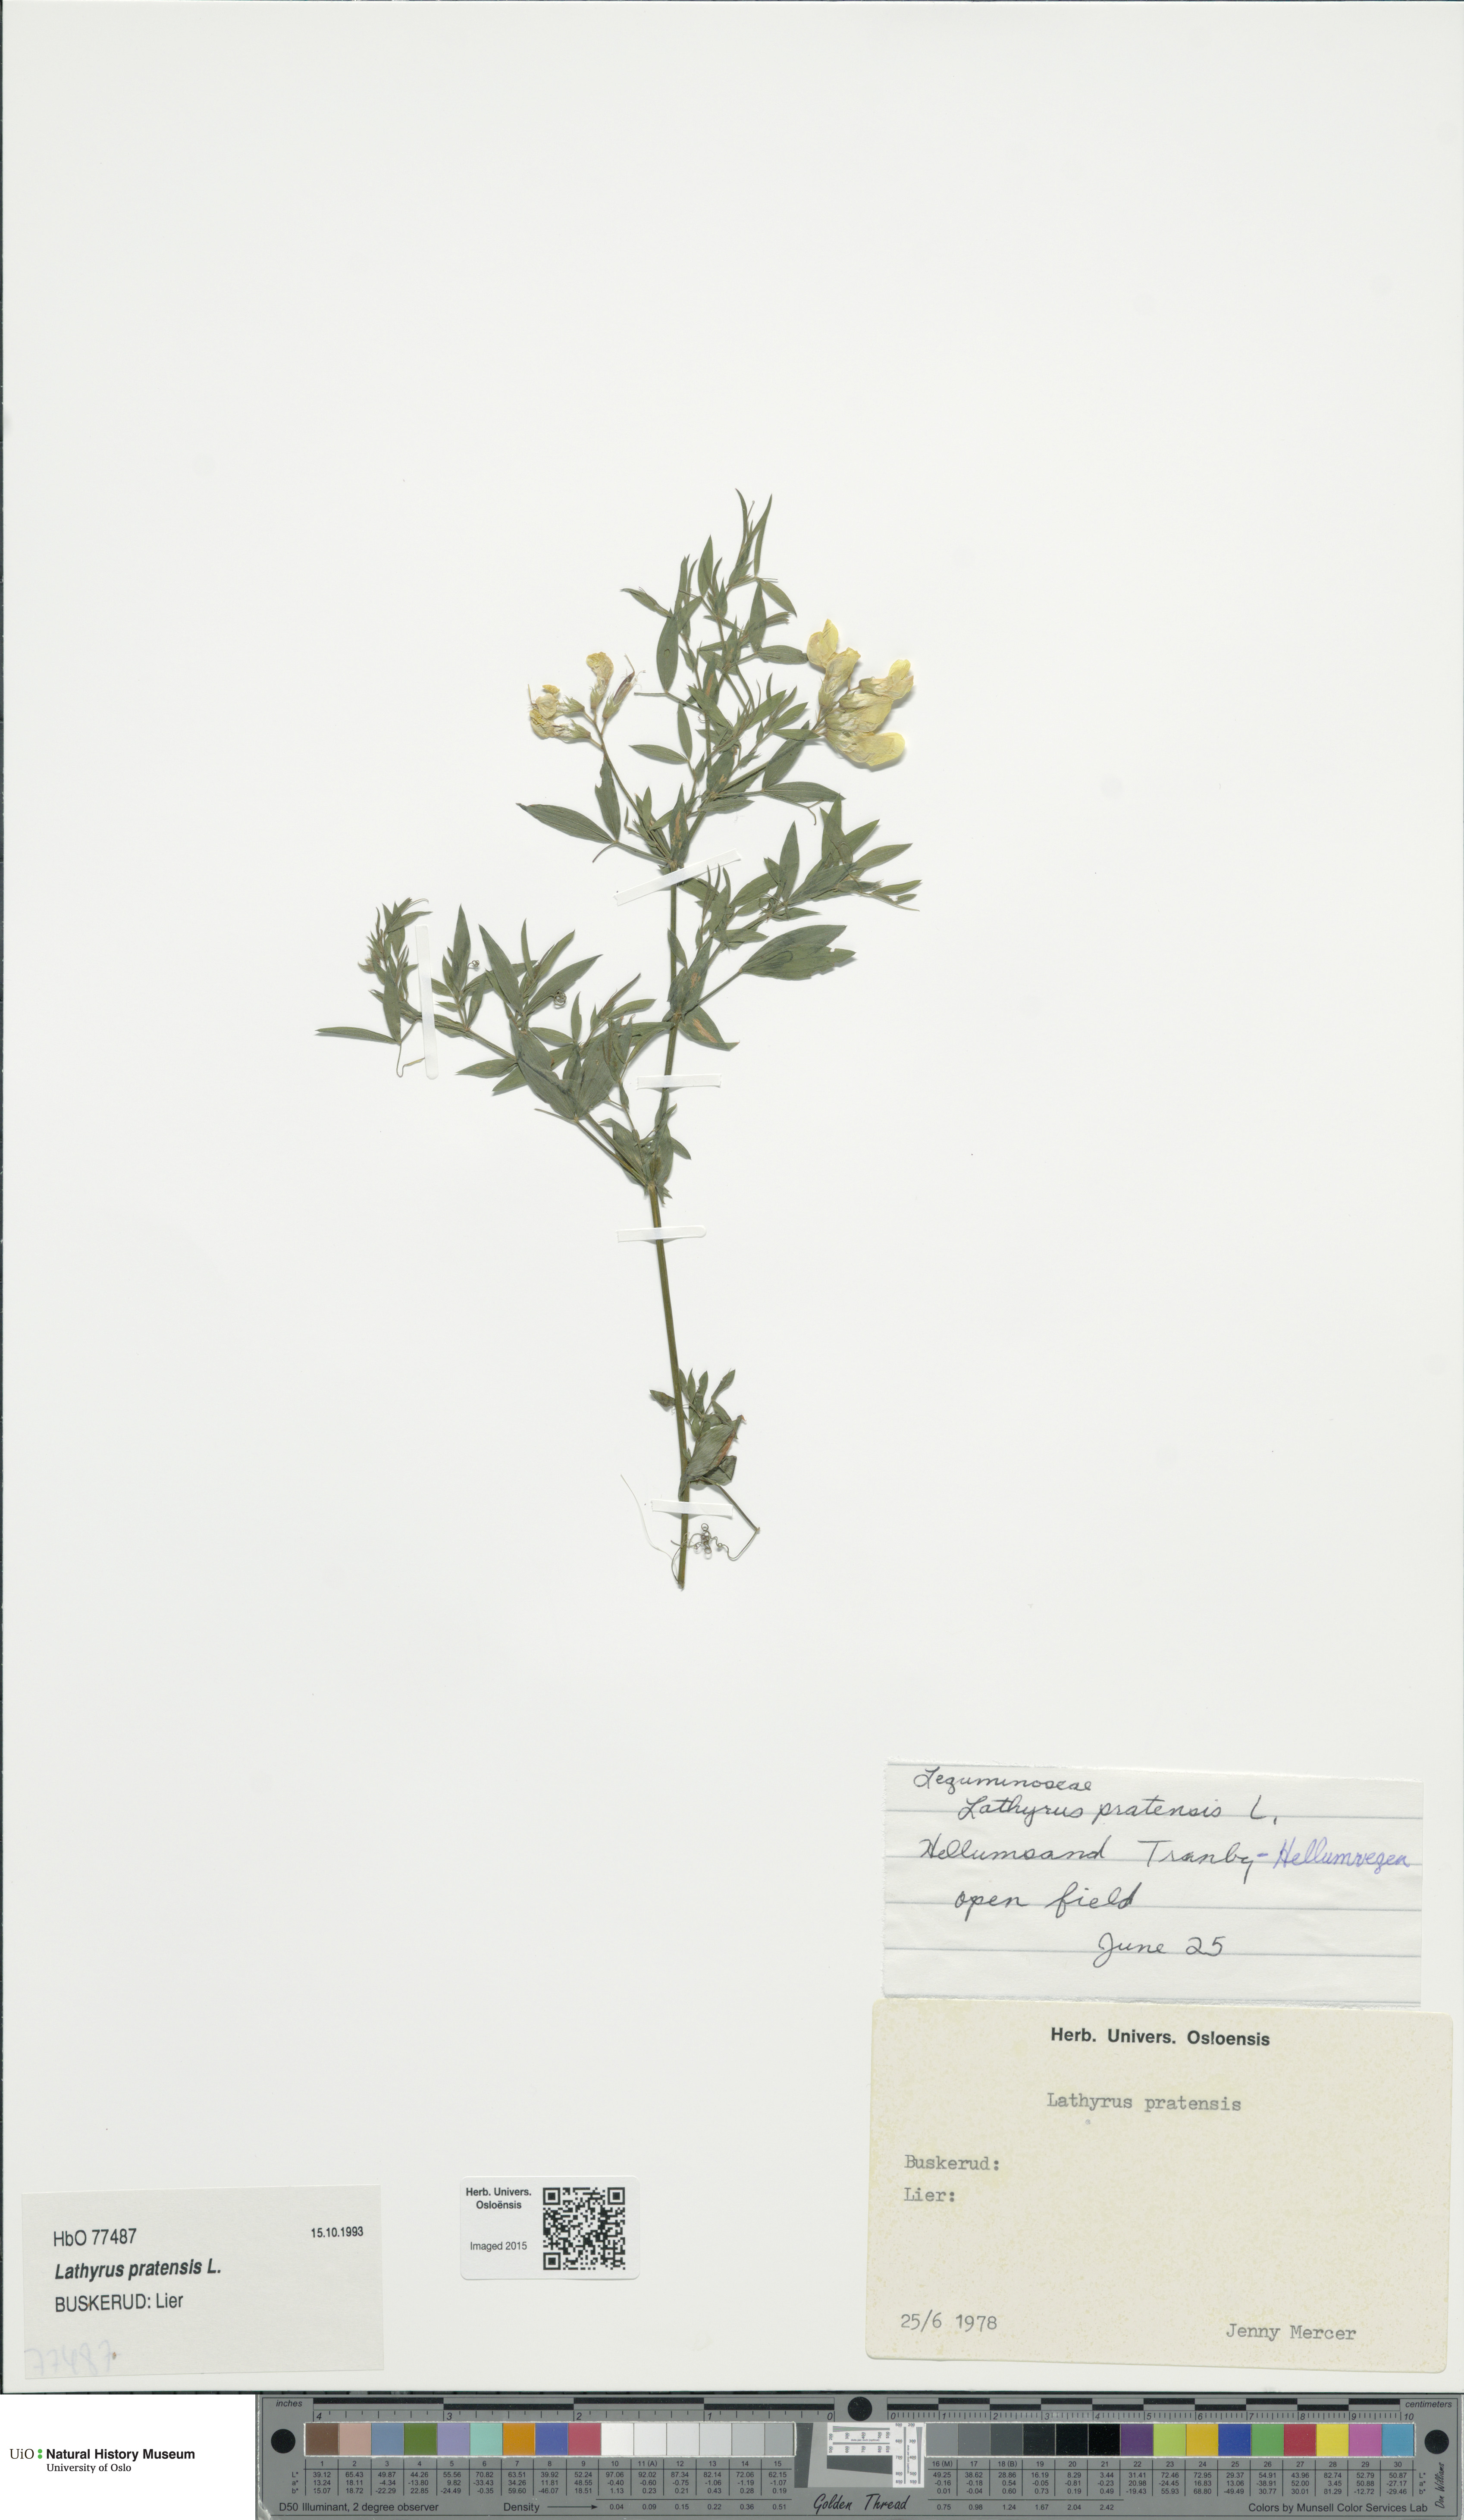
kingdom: Plantae
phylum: Tracheophyta
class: Magnoliopsida
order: Fabales
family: Fabaceae
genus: Lathyrus
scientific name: Lathyrus pratensis
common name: Meadow vetchling
